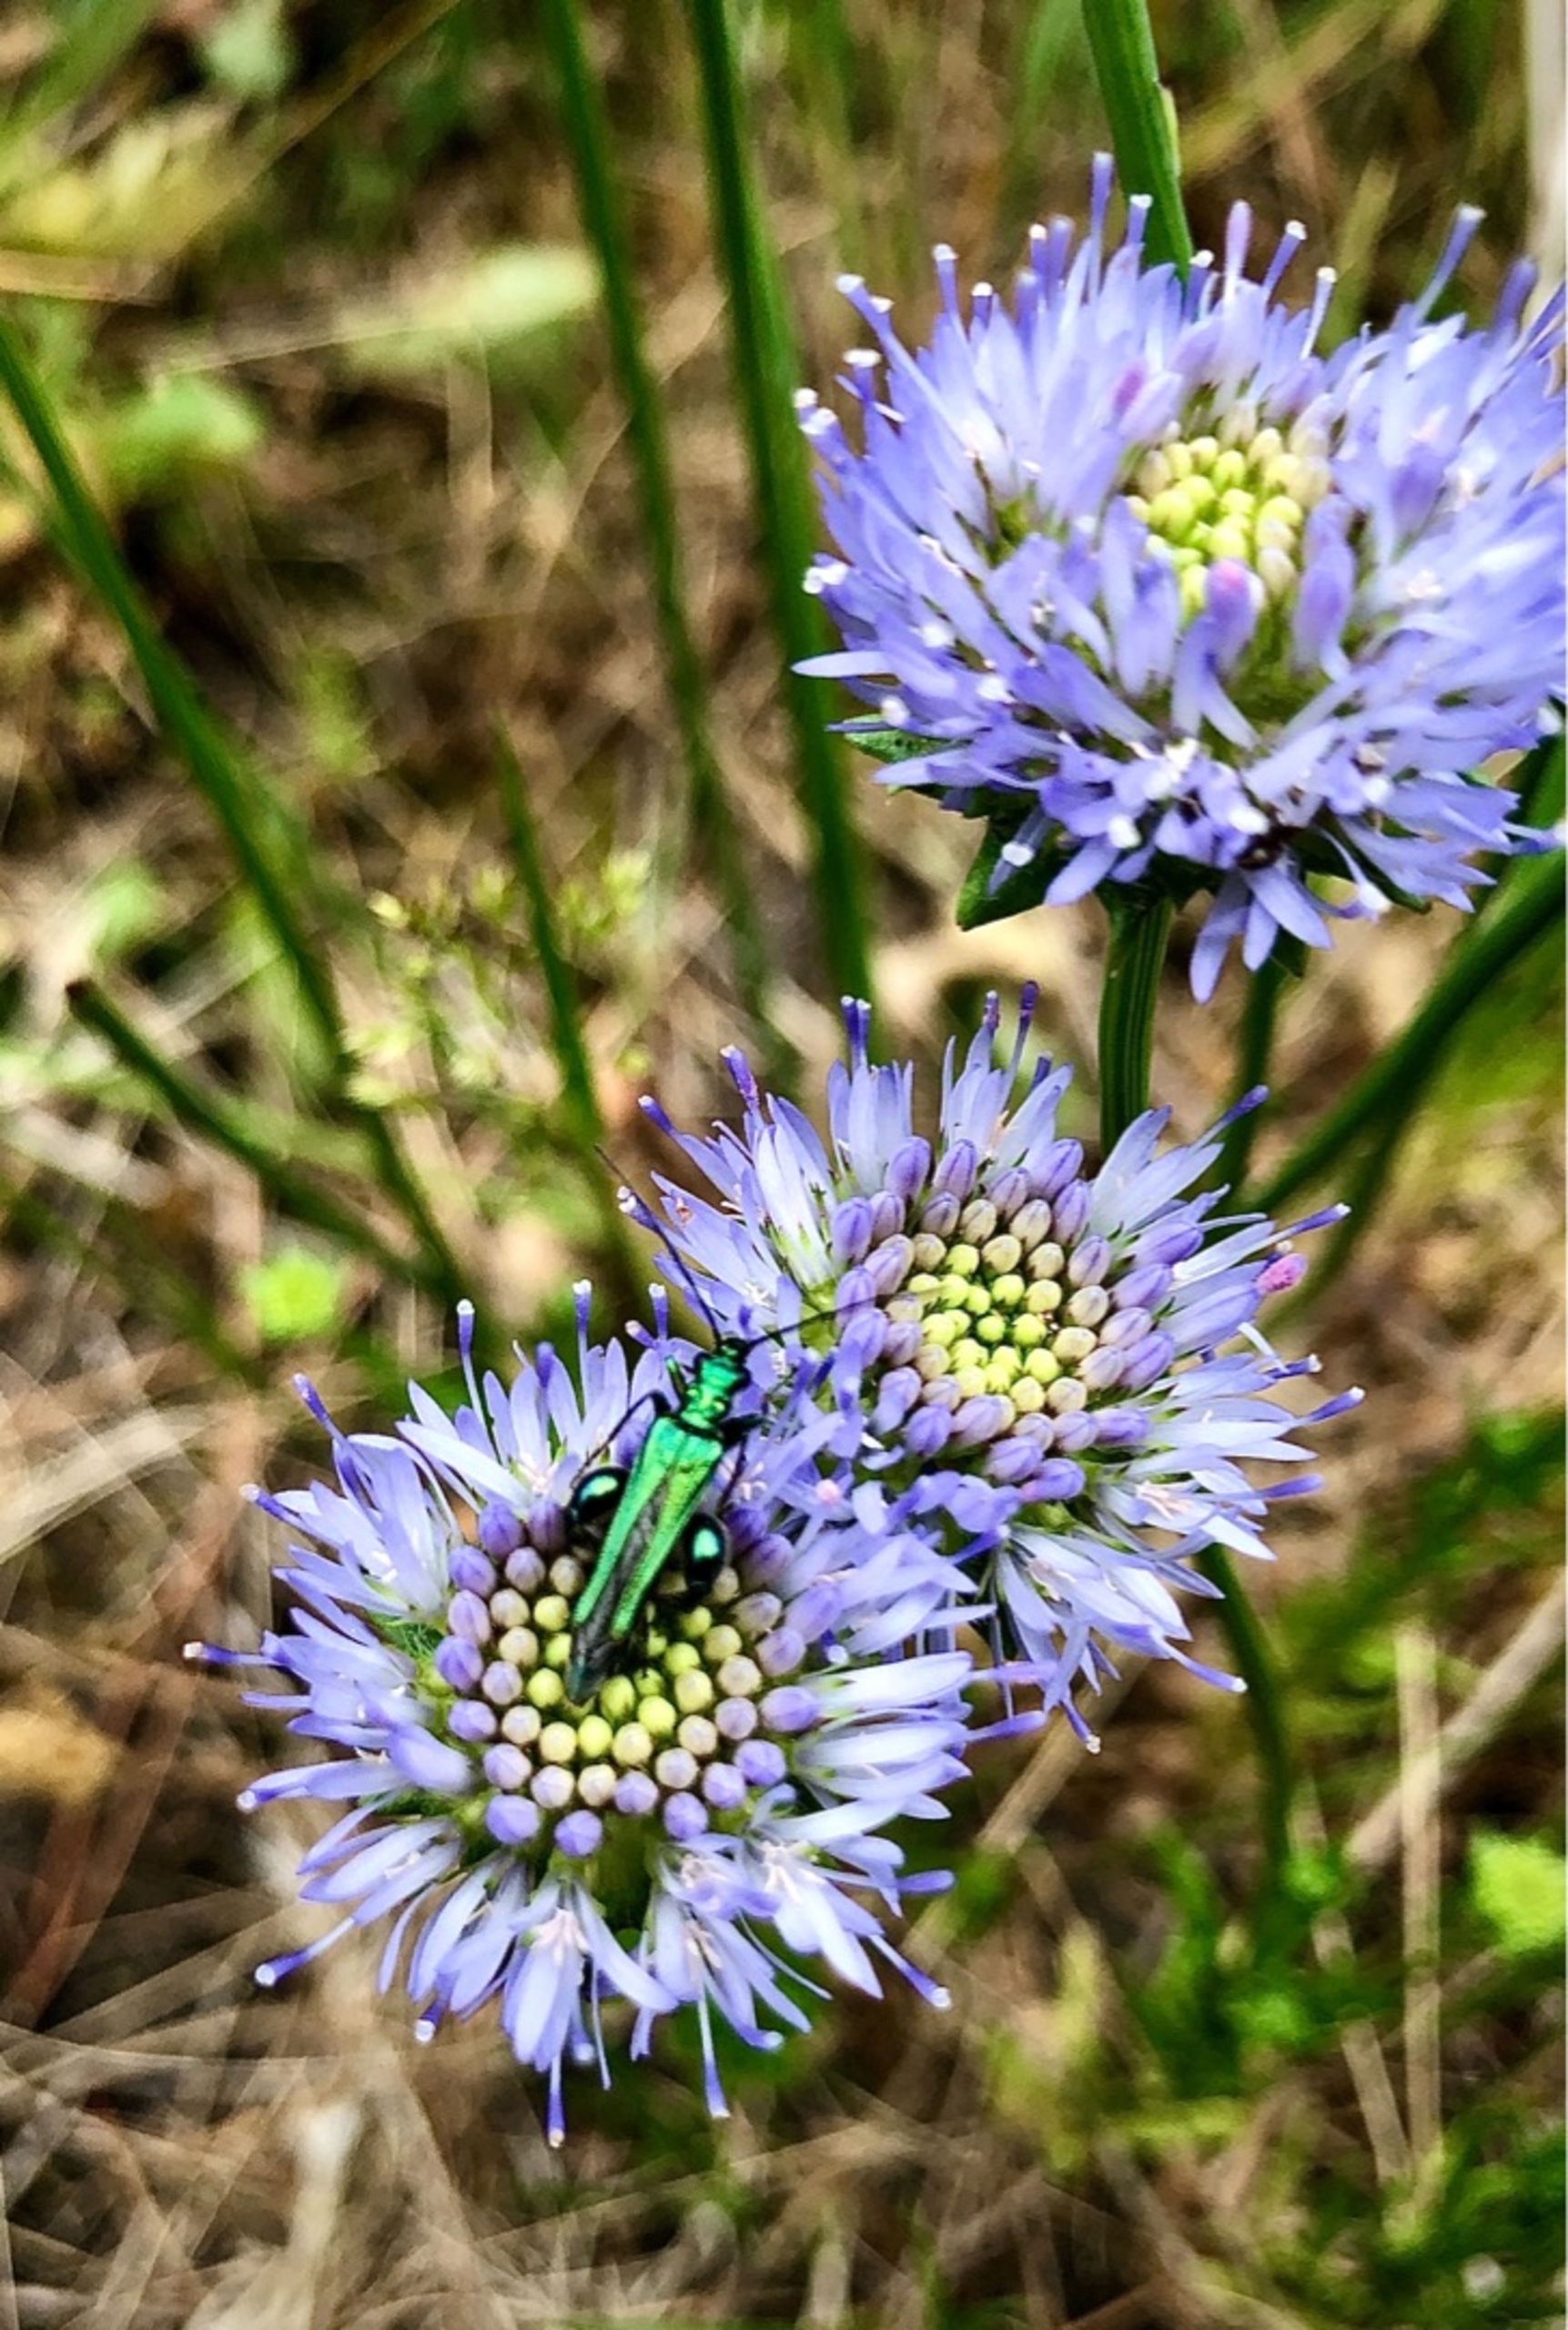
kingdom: Animalia
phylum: Arthropoda
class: Insecta
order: Coleoptera
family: Oedemeridae
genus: Oedemera
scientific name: Oedemera nobilis
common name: Tyklårssolbille
